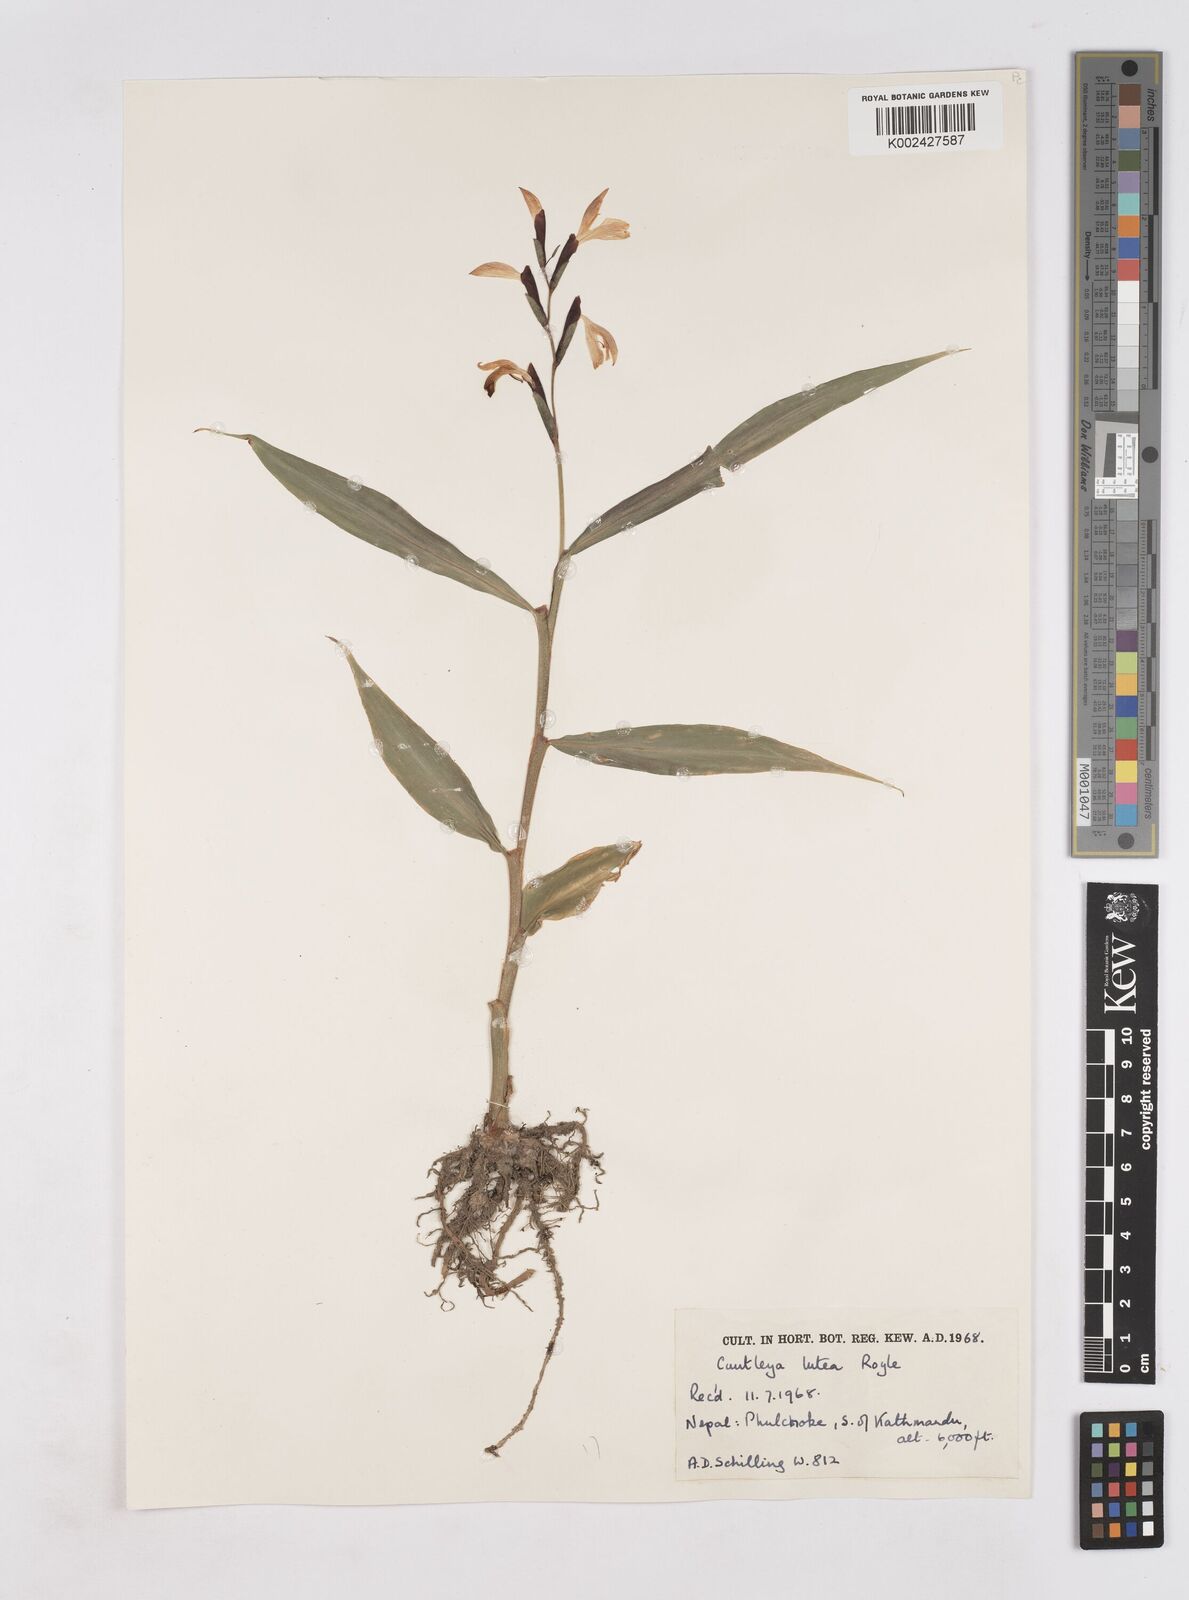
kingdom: Plantae
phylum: Tracheophyta
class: Liliopsida
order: Zingiberales
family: Zingiberaceae
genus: Cautleya
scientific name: Cautleya gracilis
